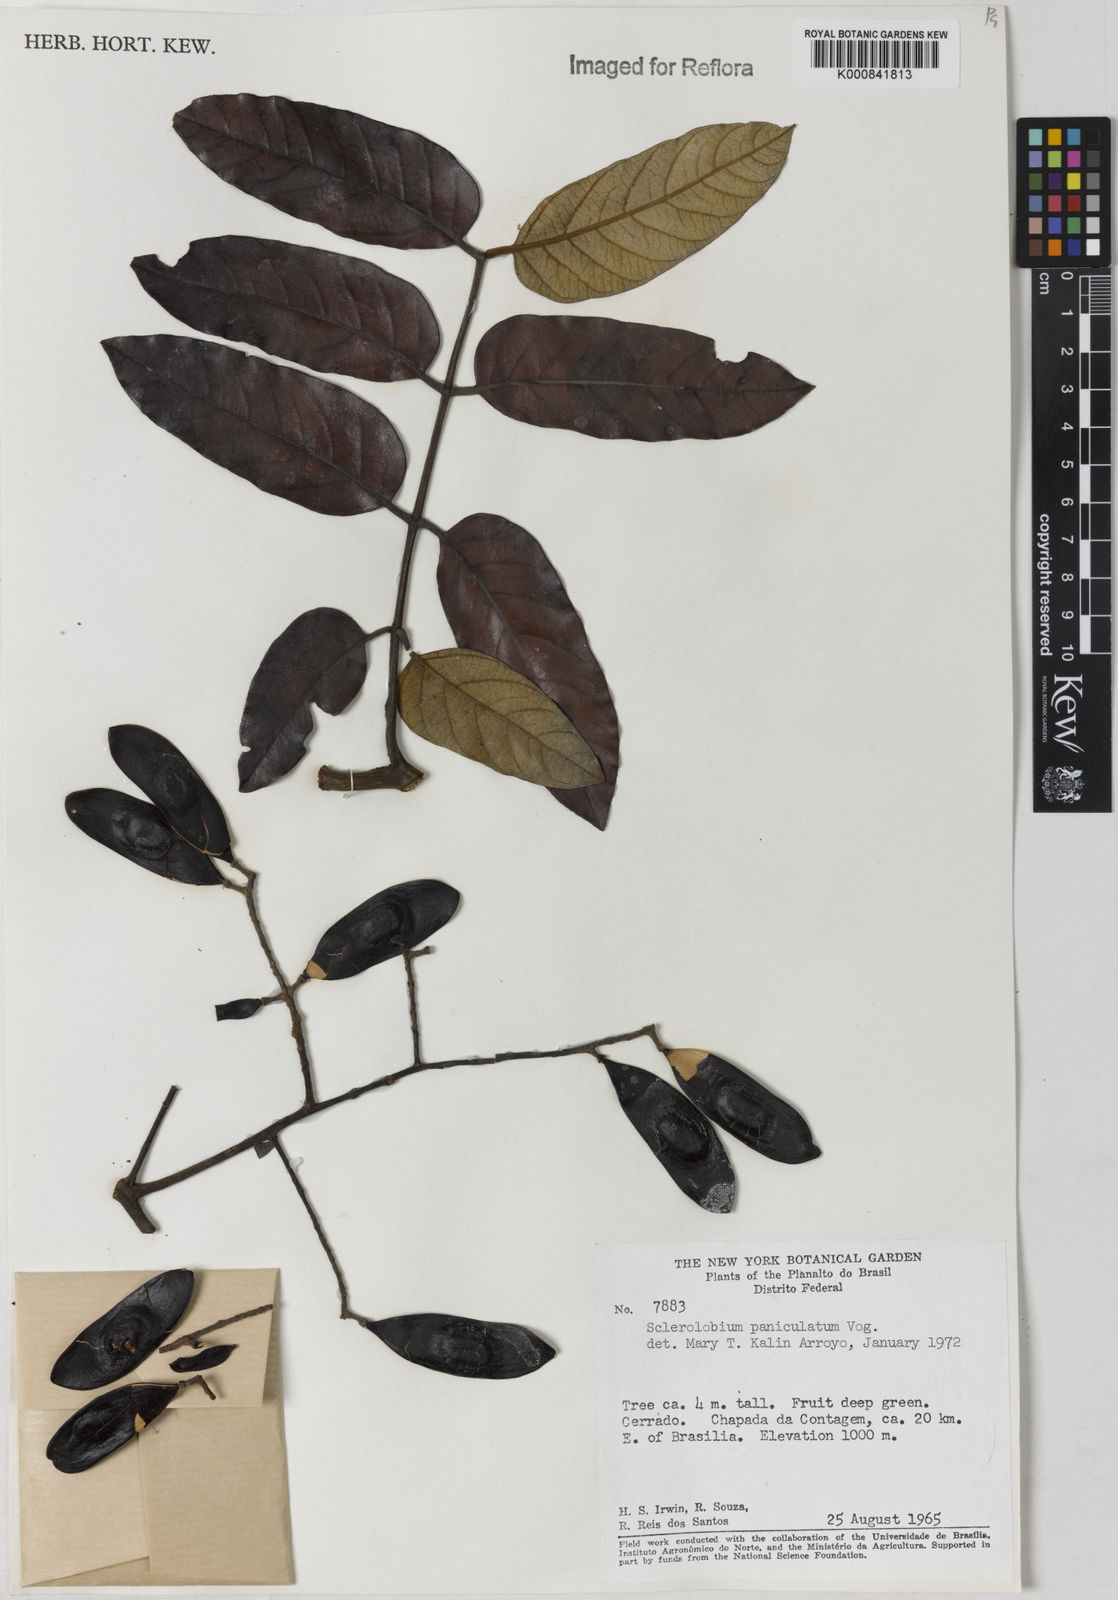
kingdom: Plantae
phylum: Tracheophyta
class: Magnoliopsida
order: Fabales
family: Fabaceae
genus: Tachigali
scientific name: Tachigali subvelutina
